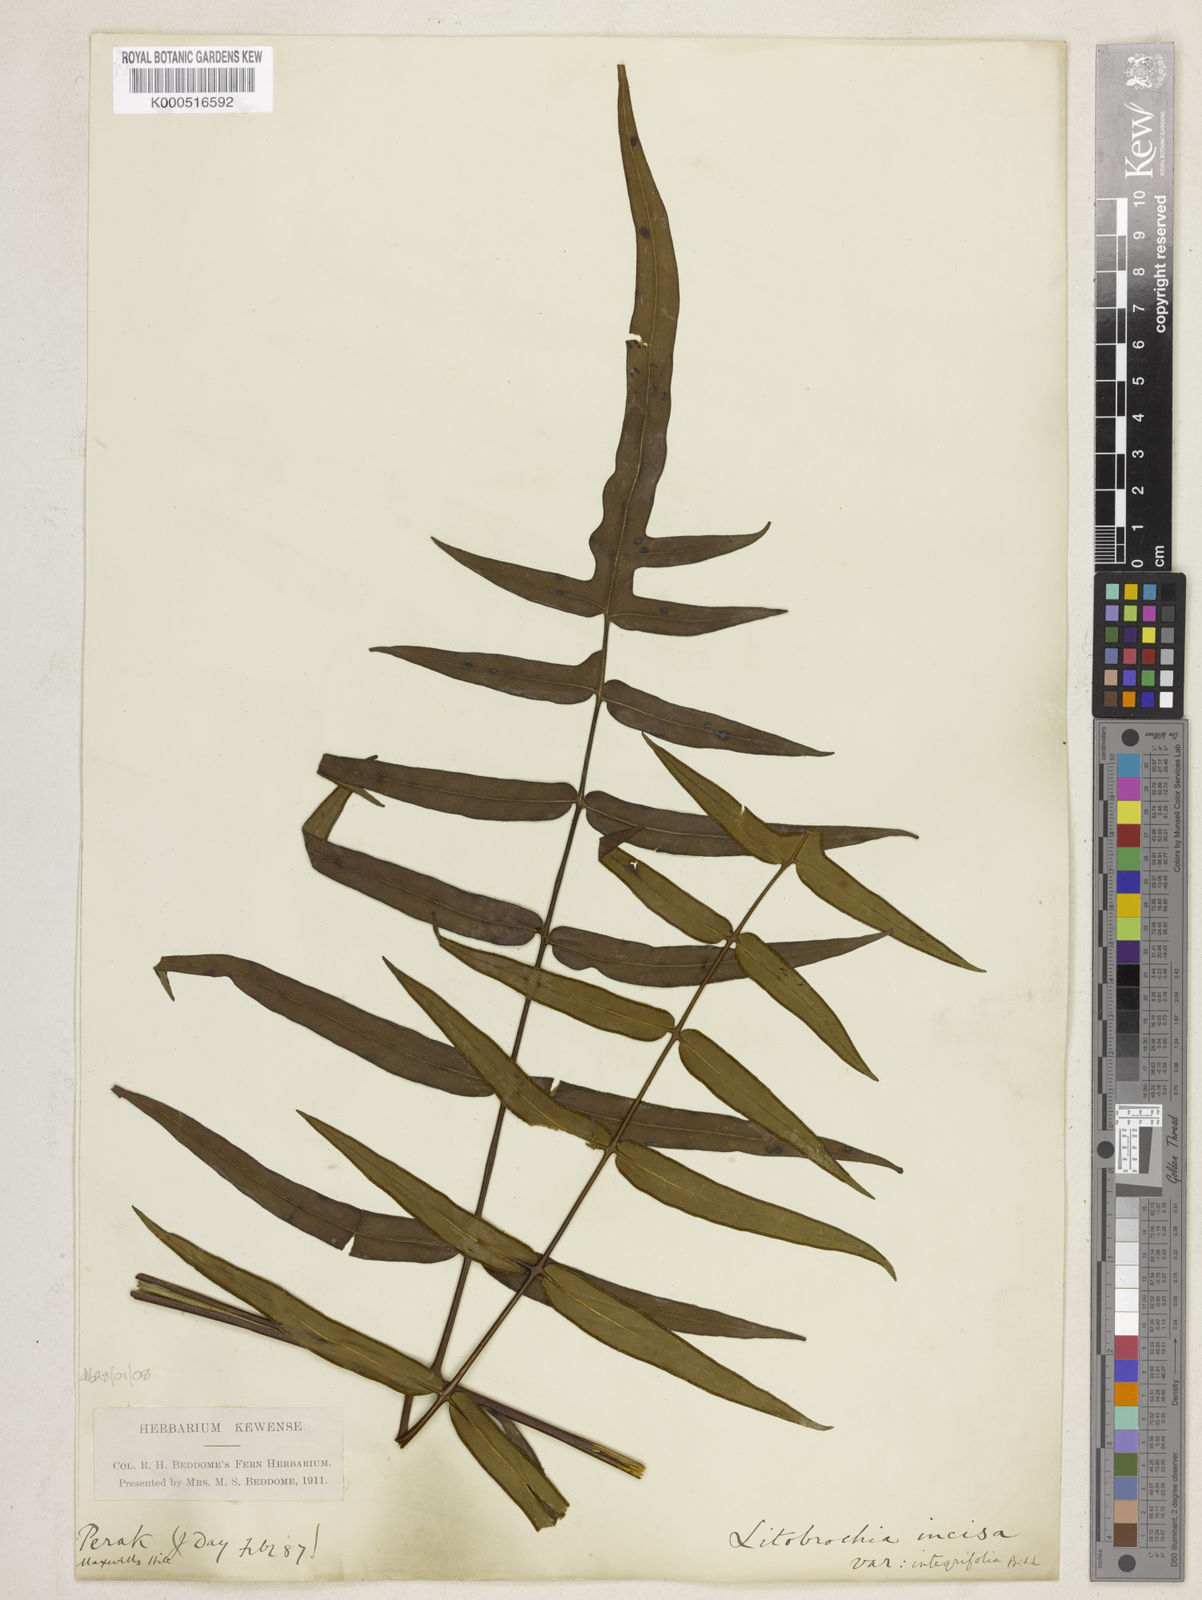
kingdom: Plantae
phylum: Tracheophyta
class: Polypodiopsida
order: Polypodiales
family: Dennstaedtiaceae
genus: Histiopteris
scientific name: Histiopteris stipulacea
